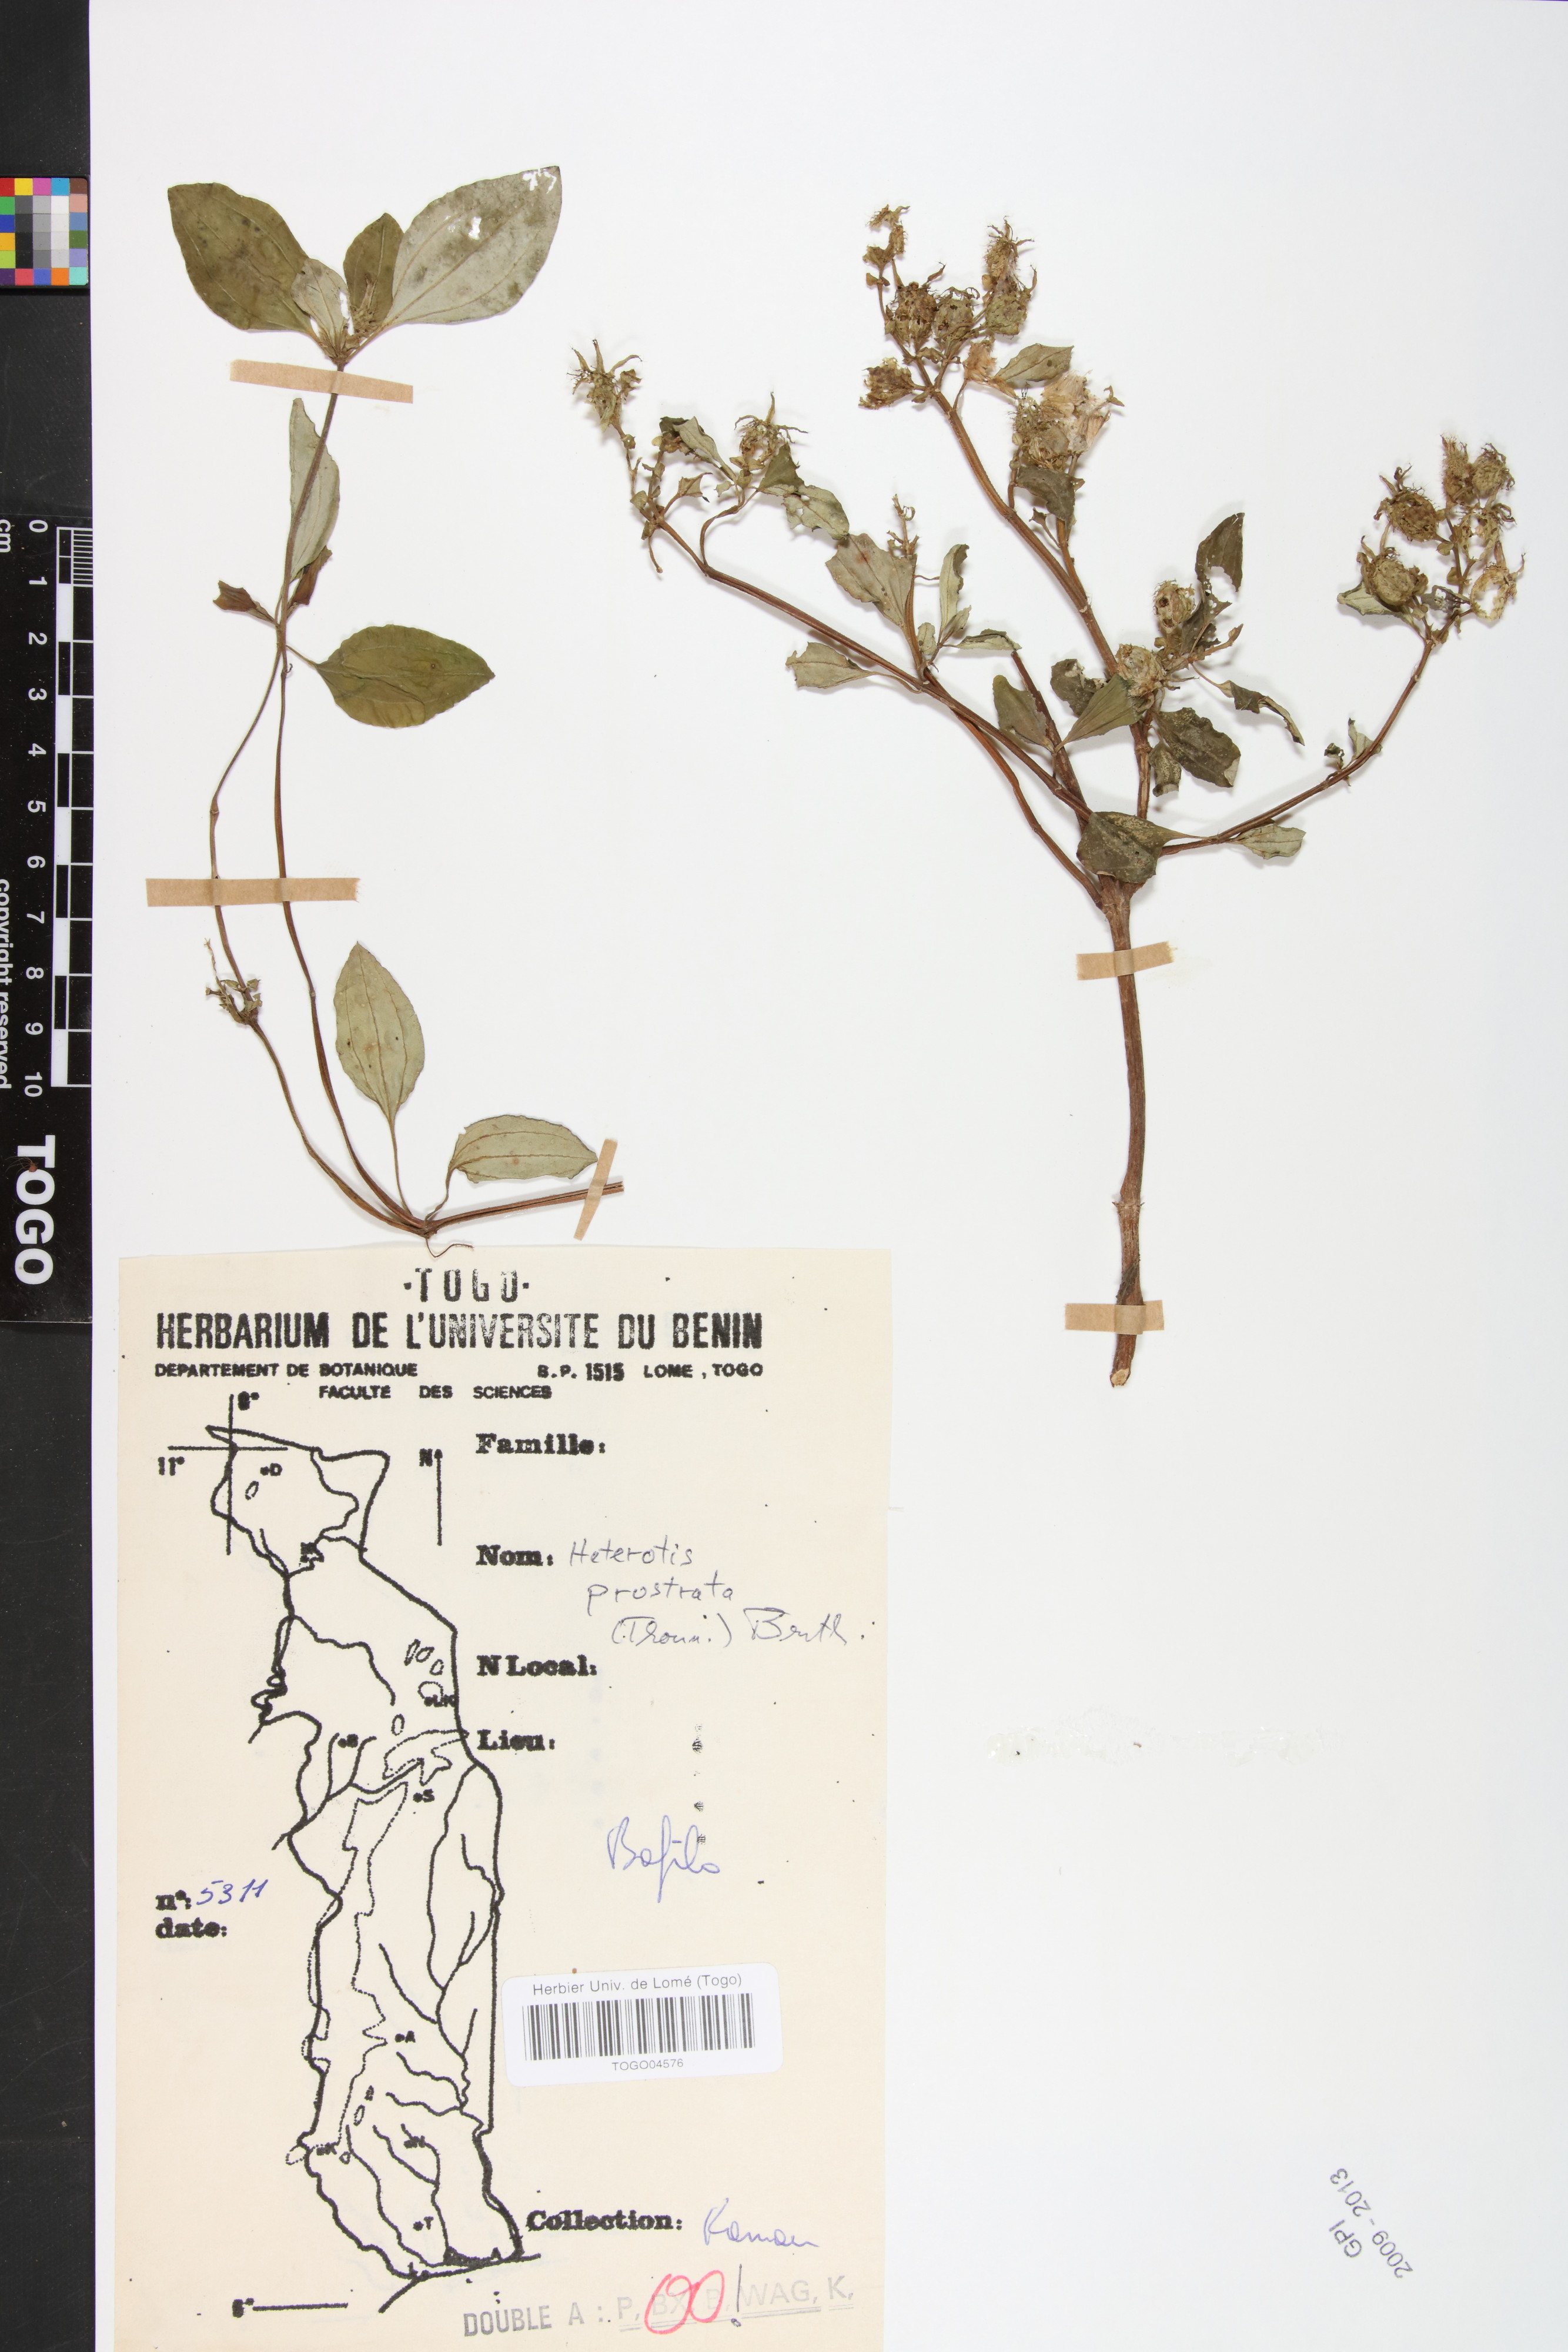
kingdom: Plantae
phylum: Tracheophyta
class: Magnoliopsida
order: Myrtales
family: Melastomataceae
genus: Heterotis
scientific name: Heterotis prostrata
